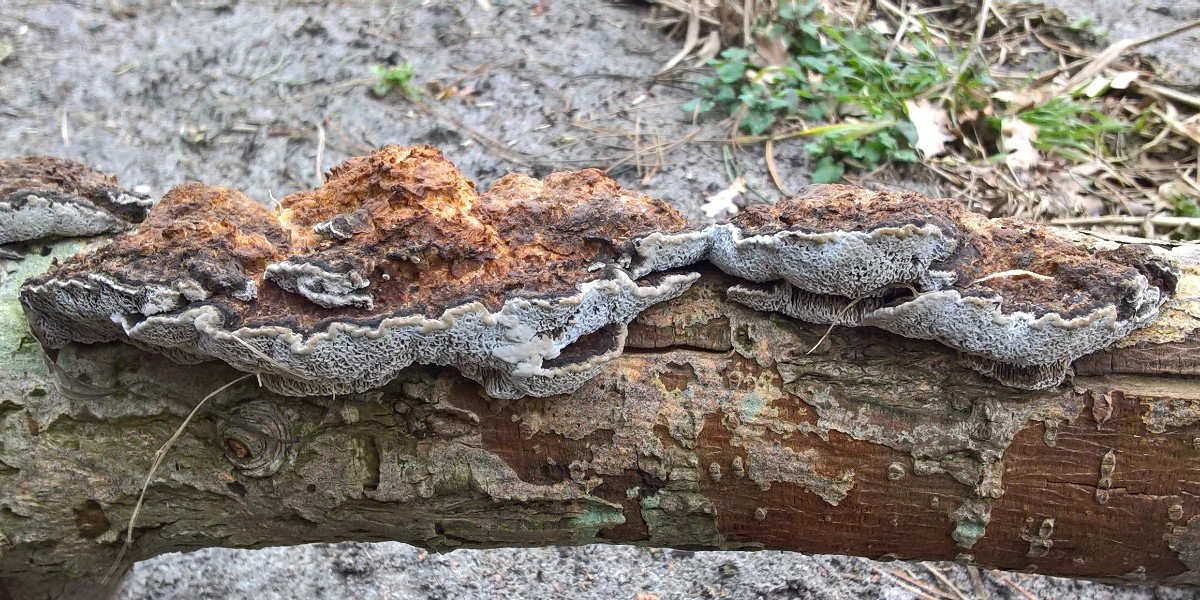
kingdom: Fungi
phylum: Basidiomycota
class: Agaricomycetes
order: Polyporales
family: Polyporaceae
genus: Daedaleopsis
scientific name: Daedaleopsis confragosa
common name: rødmende læderporesvamp
